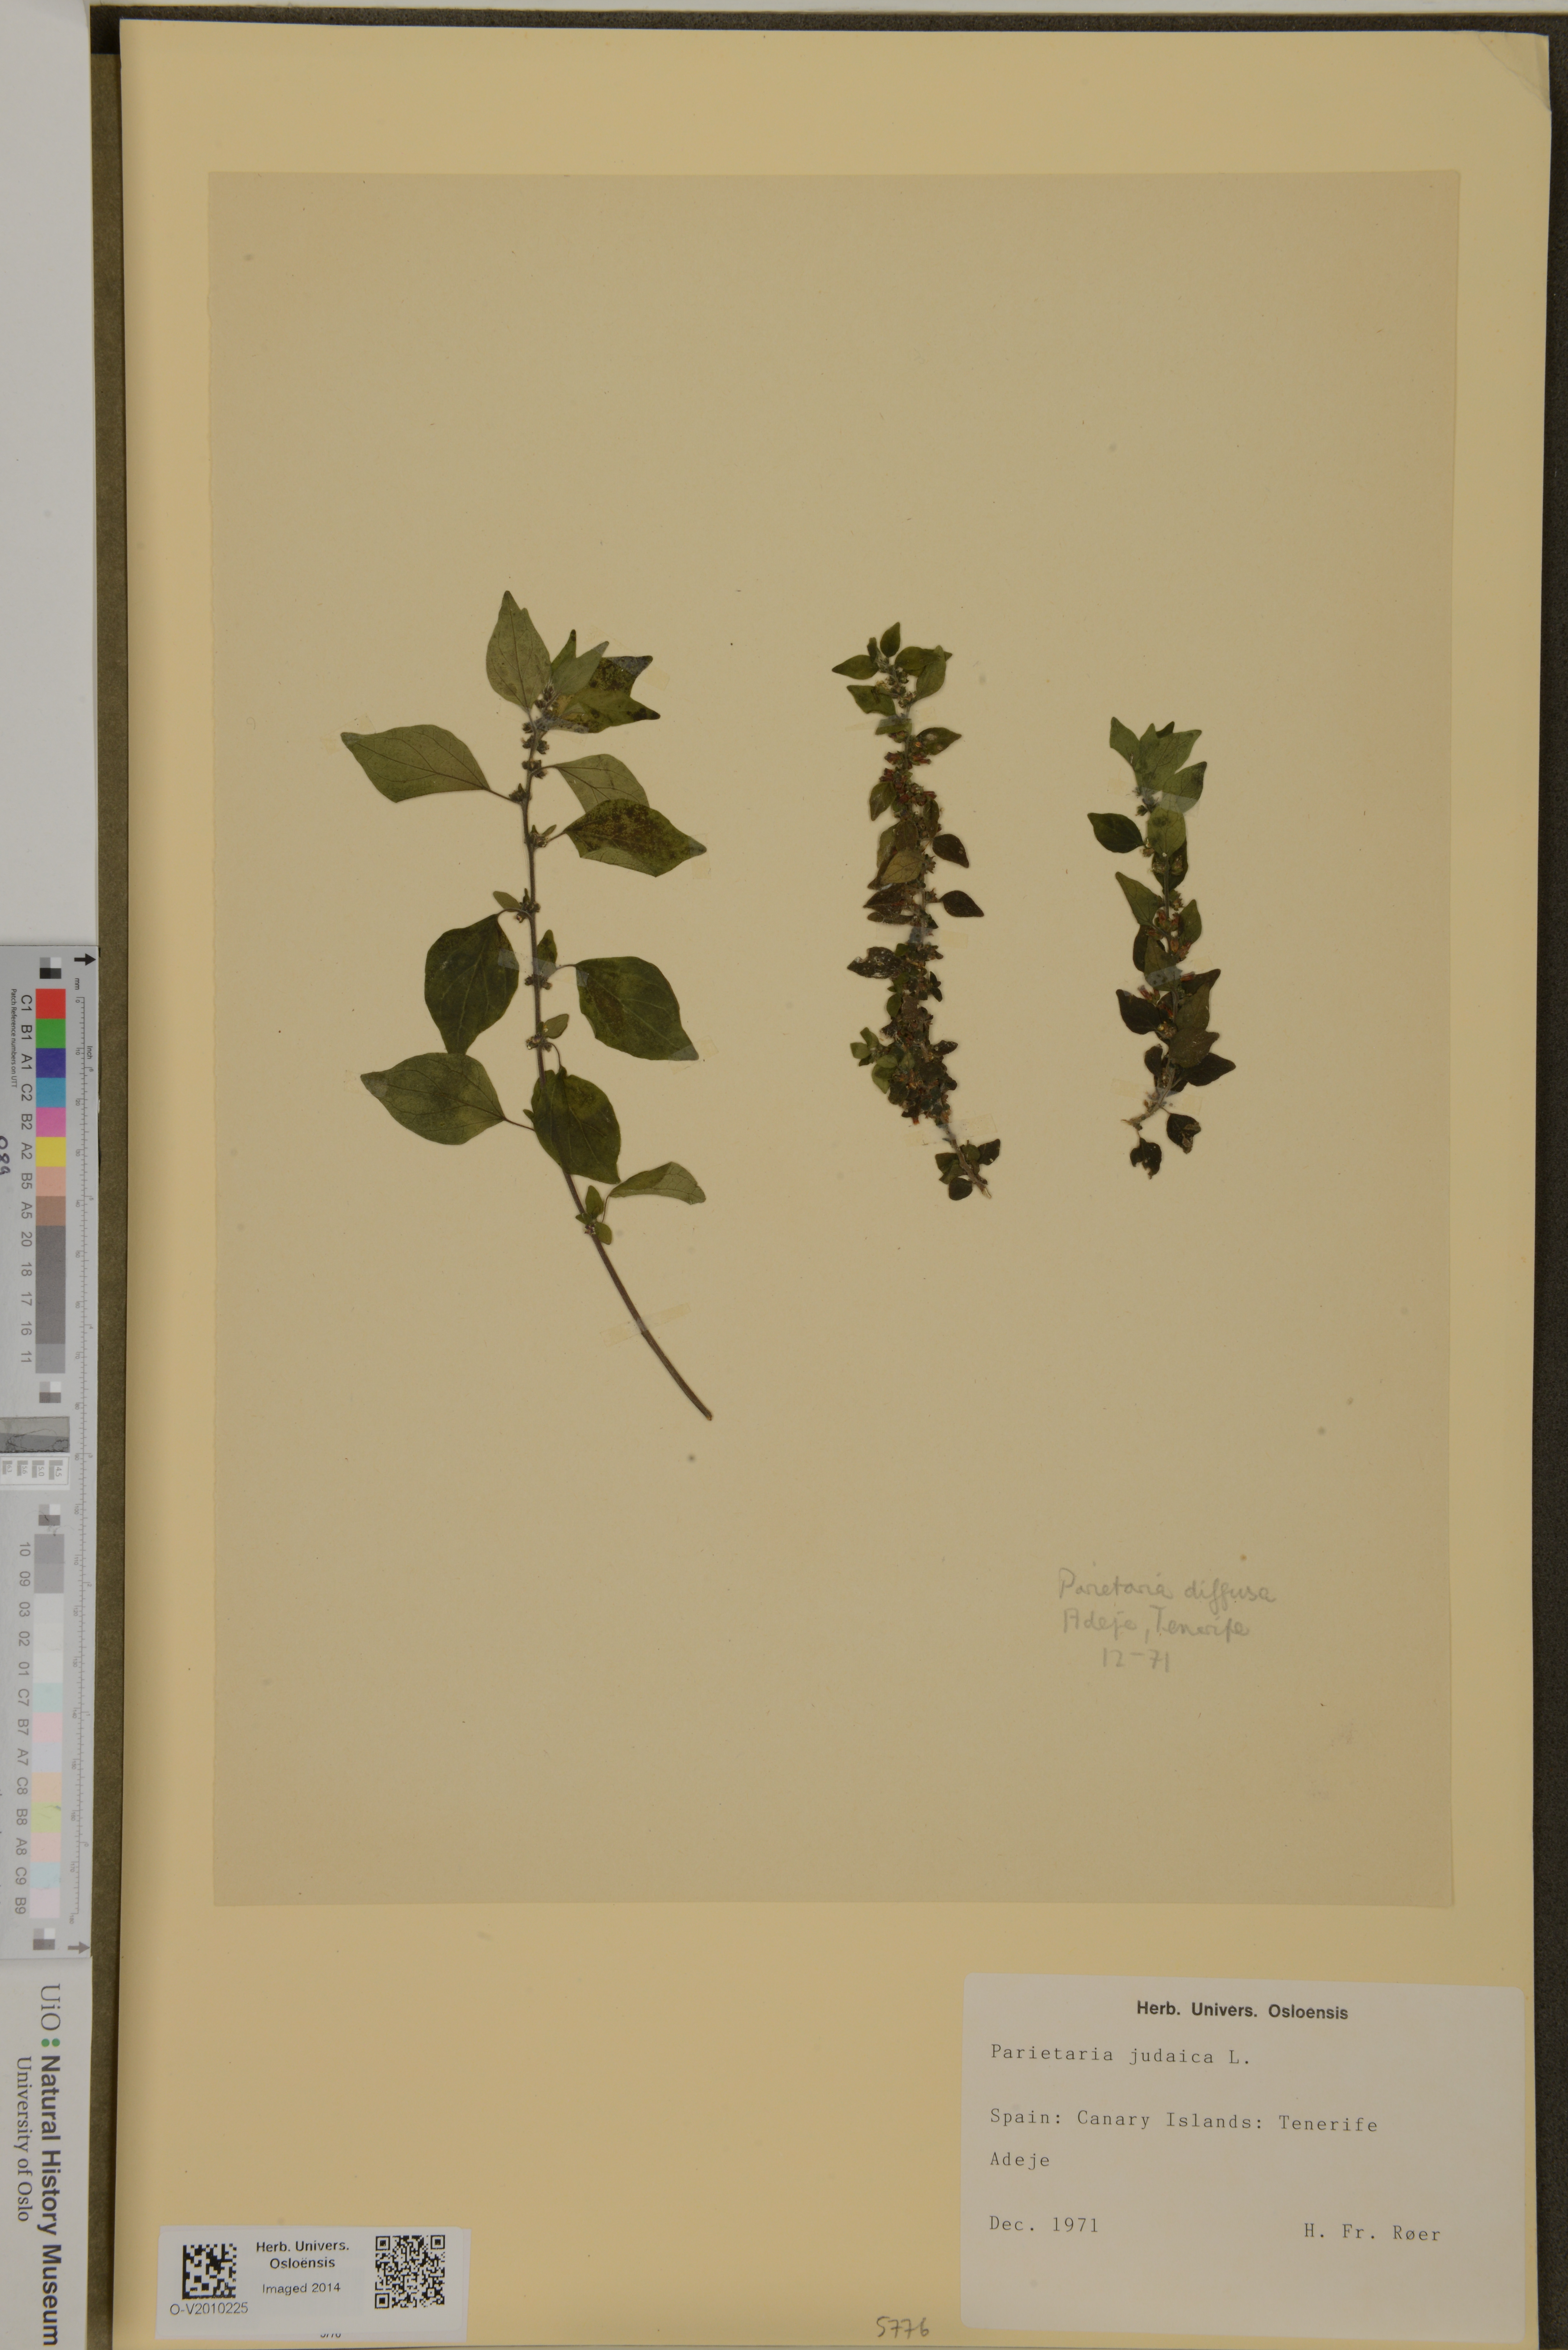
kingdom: Plantae
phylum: Tracheophyta
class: Magnoliopsida
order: Rosales
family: Urticaceae
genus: Parietaria
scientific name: Parietaria
